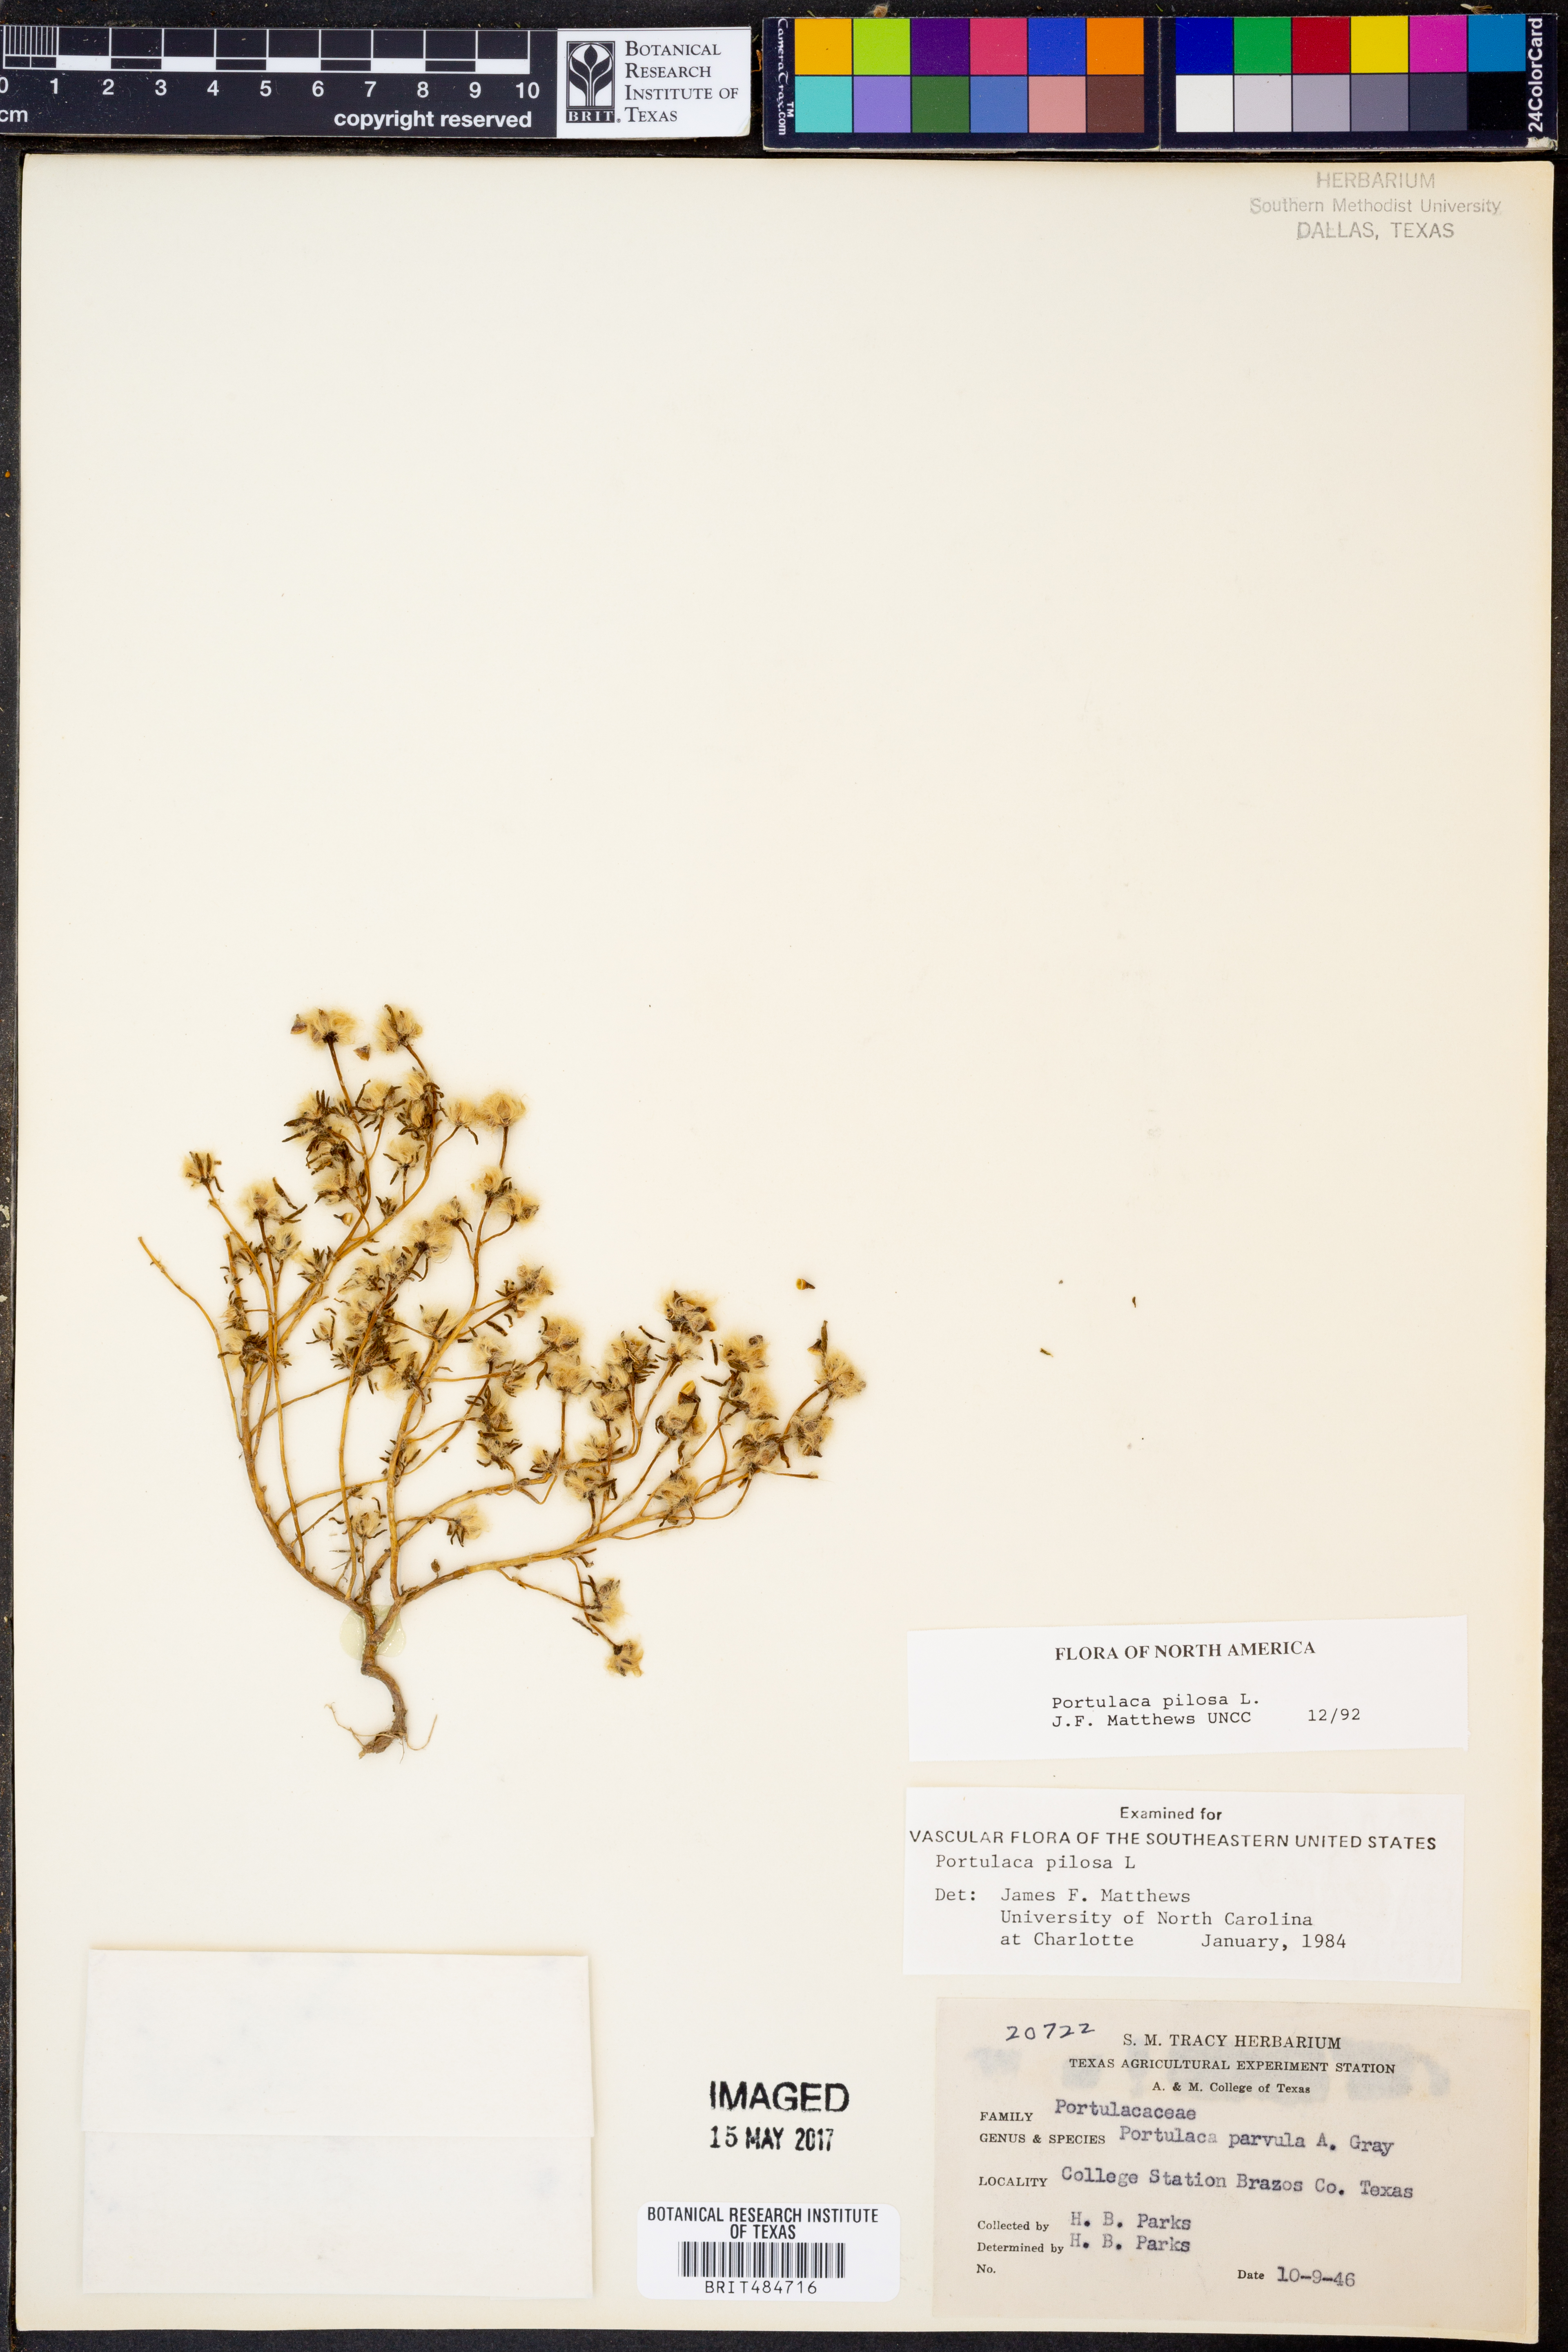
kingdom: Plantae
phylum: Tracheophyta
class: Magnoliopsida
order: Caryophyllales
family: Portulacaceae
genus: Portulaca
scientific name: Portulaca pilosa
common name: Kiss me quick
